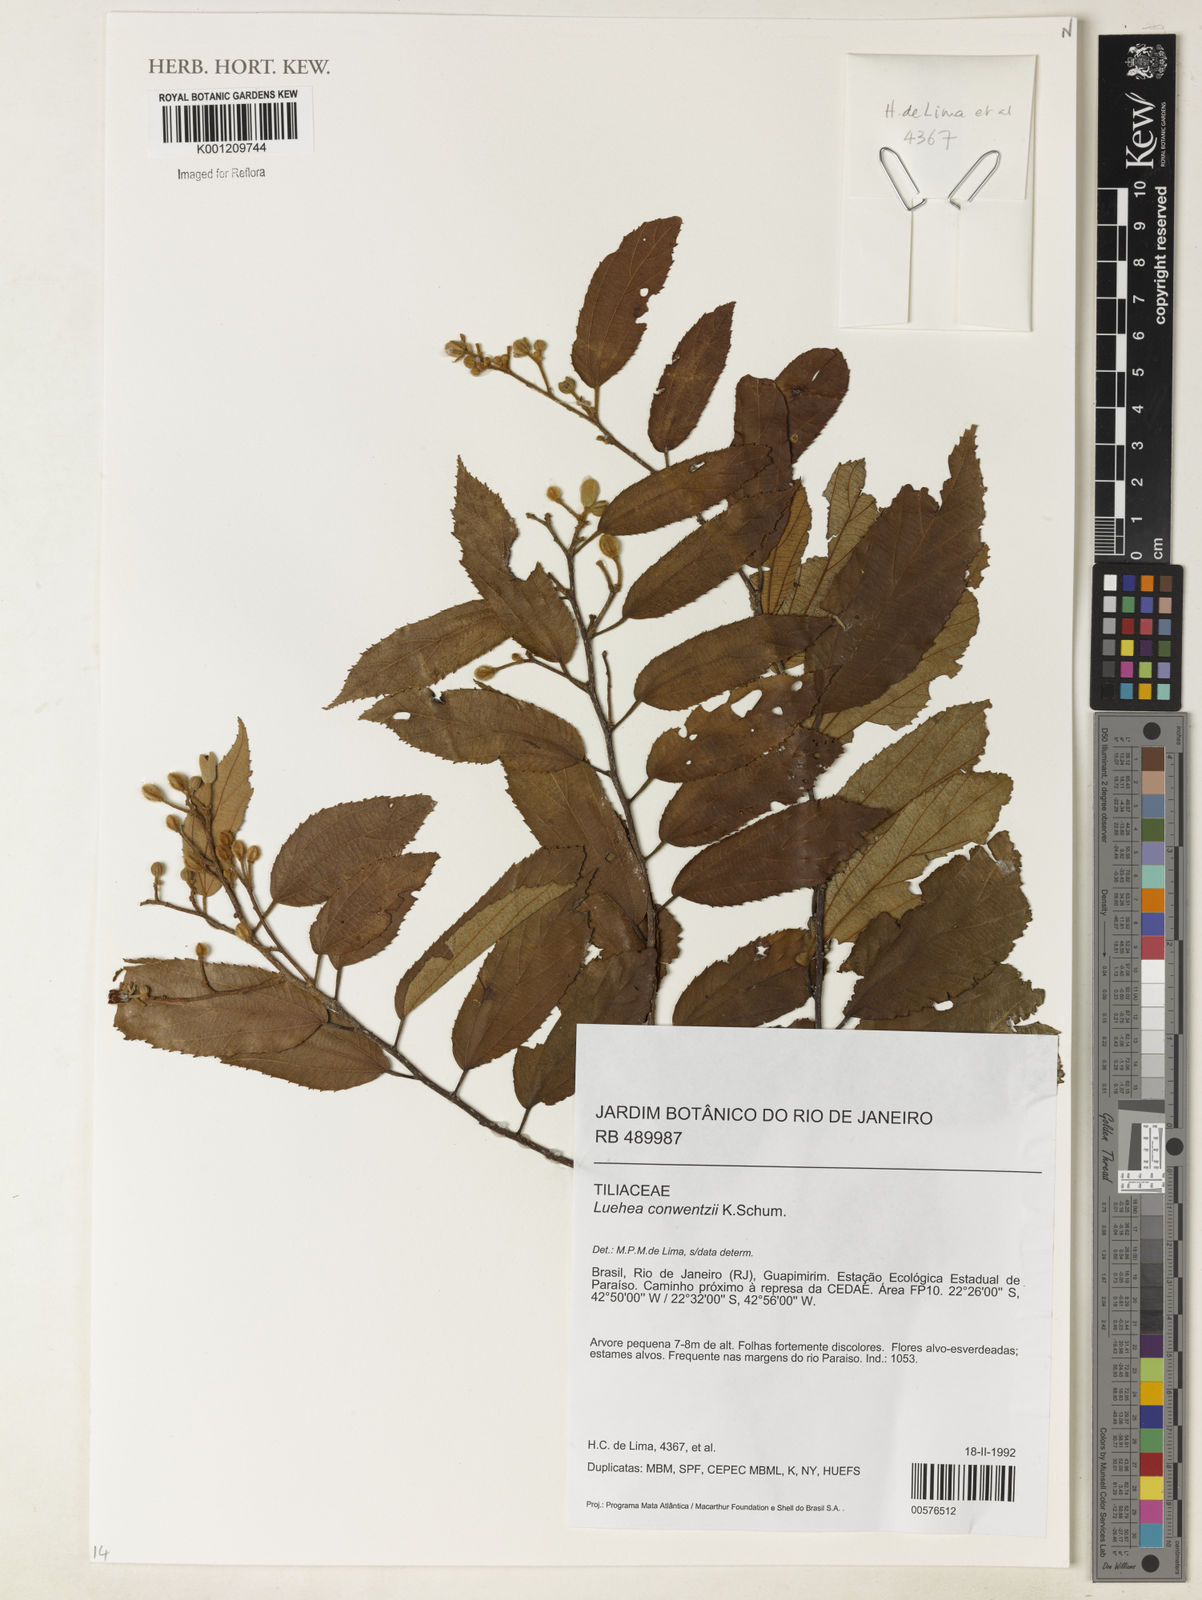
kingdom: Plantae
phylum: Tracheophyta
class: Magnoliopsida
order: Malvales
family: Malvaceae
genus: Luehea
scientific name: Luehea
